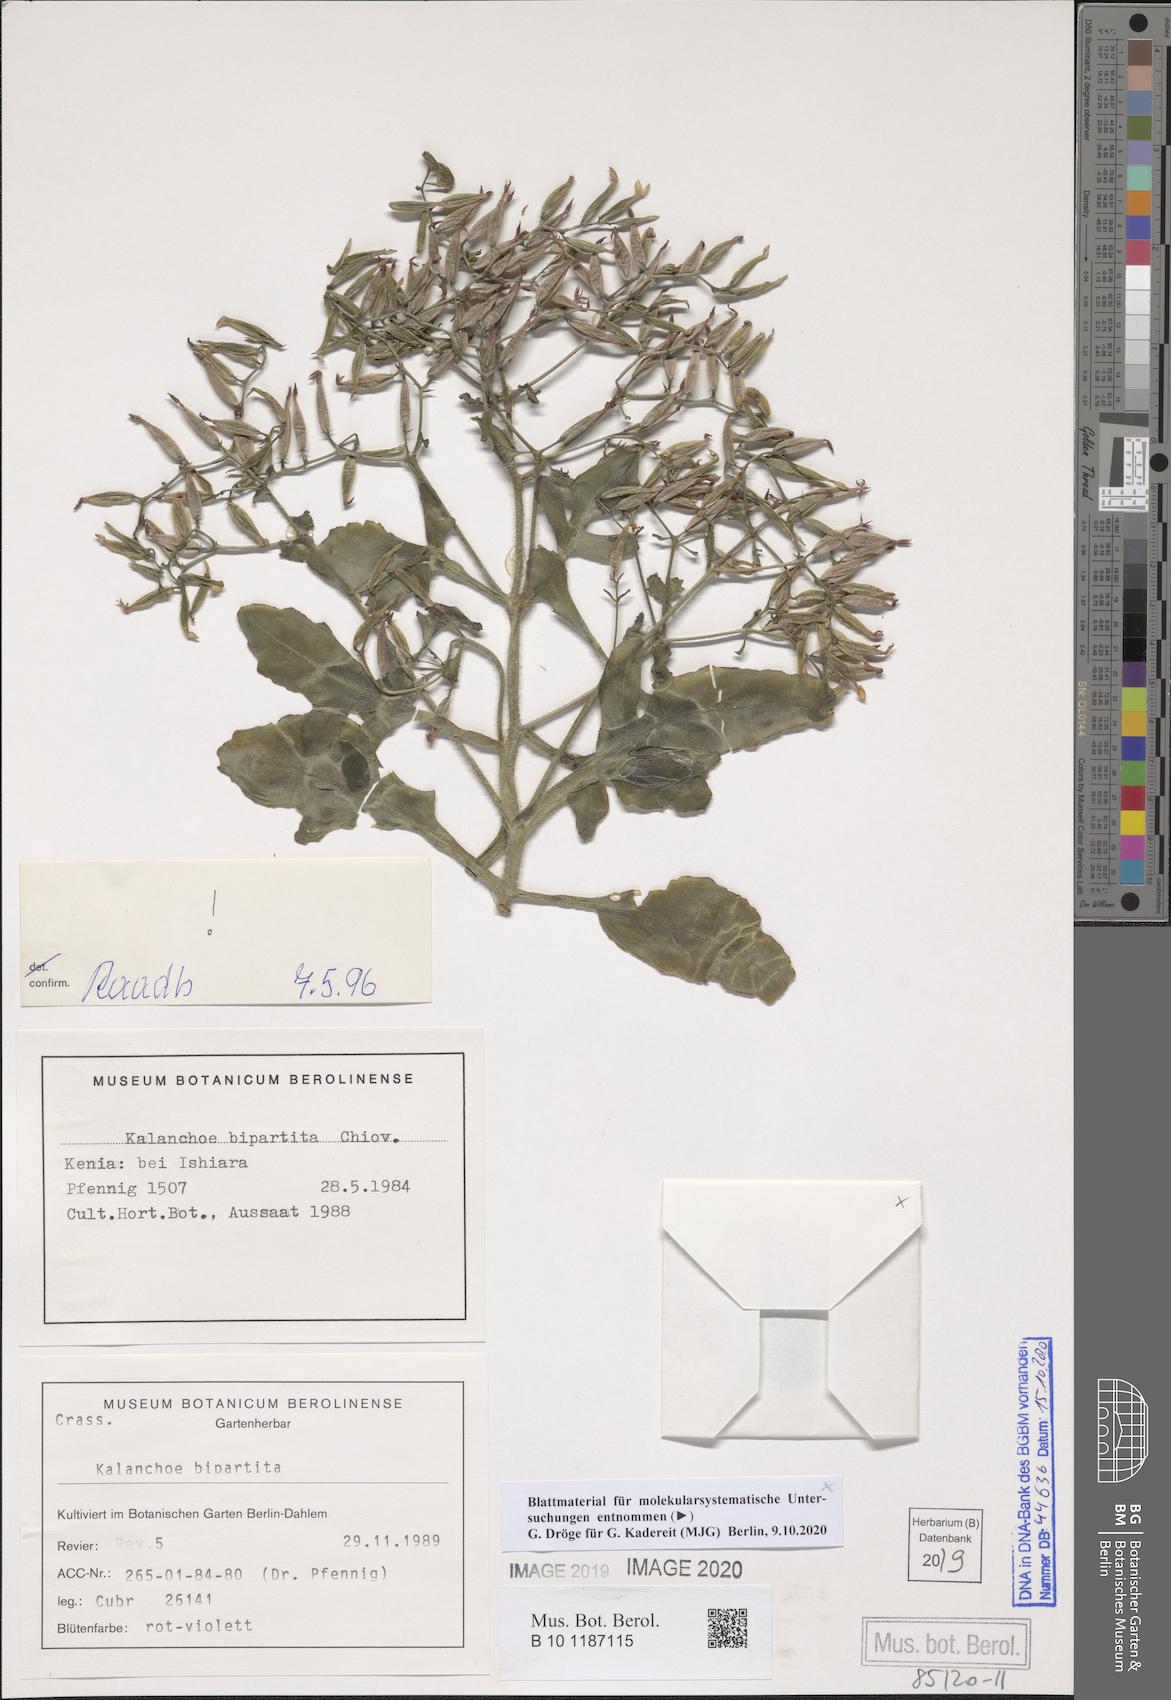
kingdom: Plantae
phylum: Tracheophyta
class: Magnoliopsida
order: Saxifragales
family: Crassulaceae
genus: Kalanchoe
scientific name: Kalanchoe bipartita
